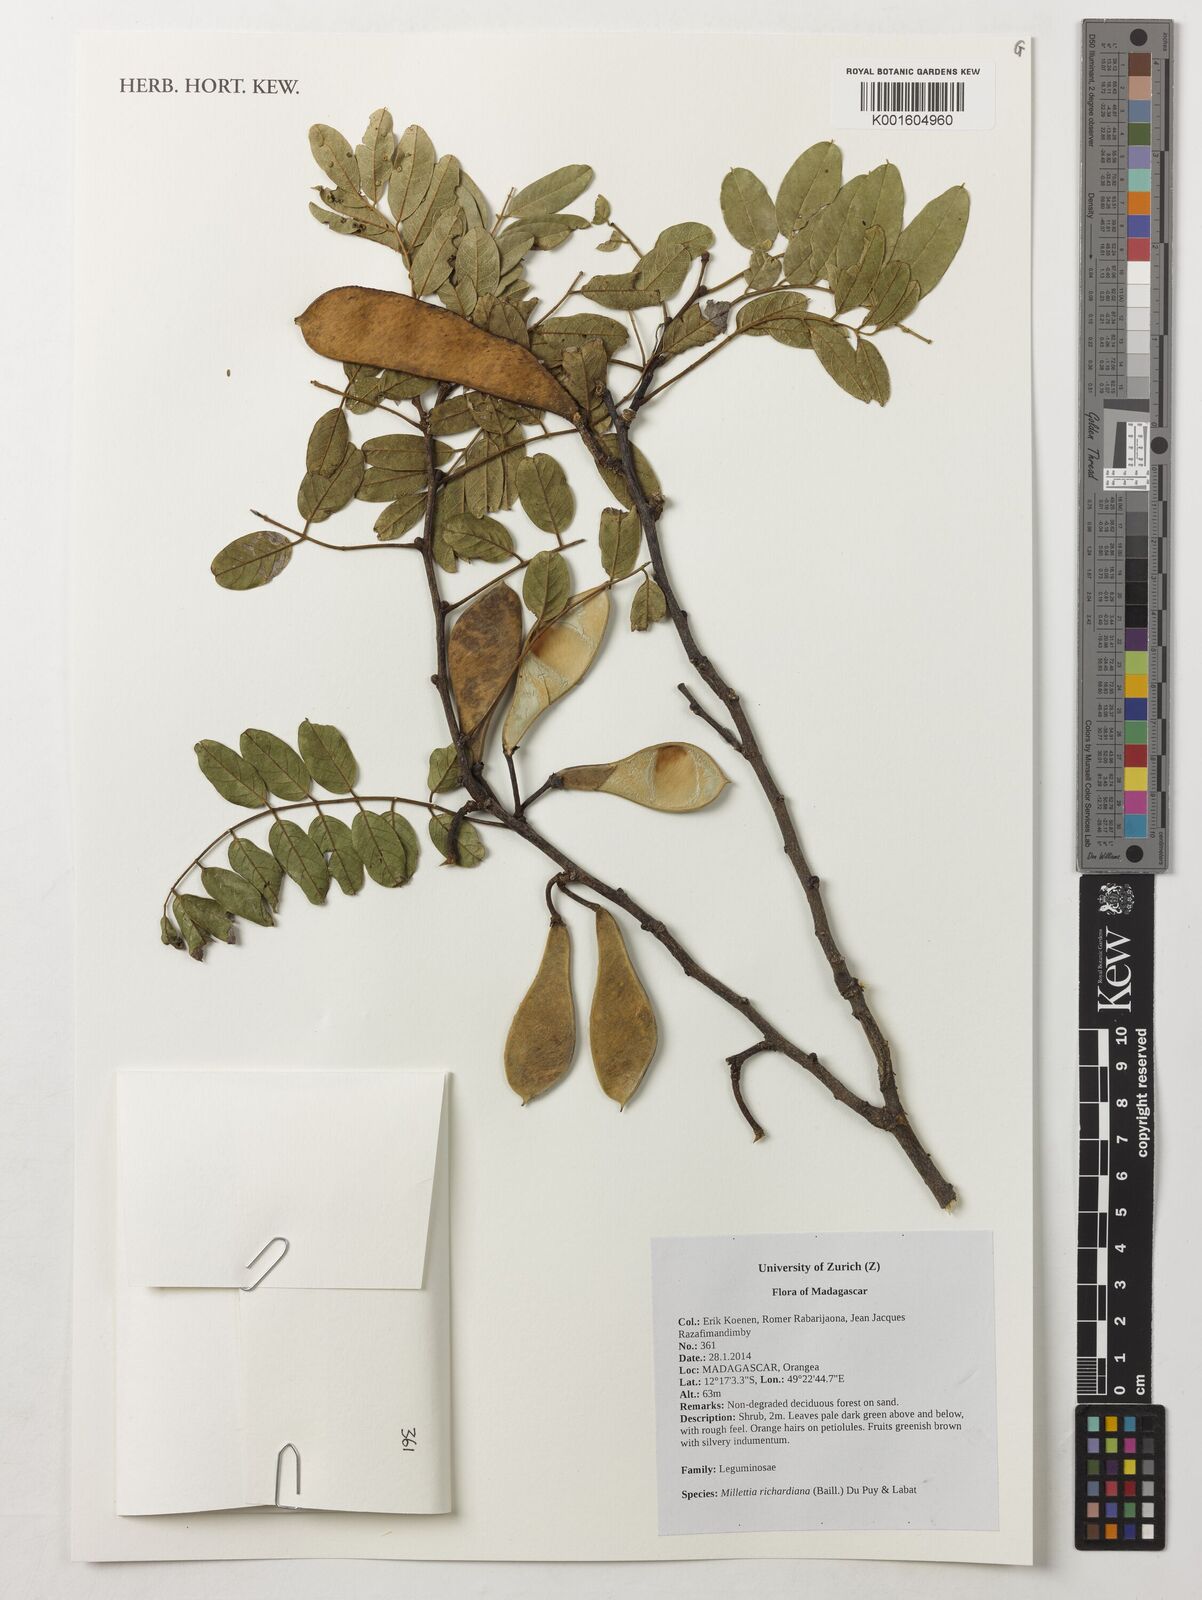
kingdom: Plantae
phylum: Tracheophyta
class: Magnoliopsida
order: Fabales
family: Fabaceae
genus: Millettia
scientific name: Millettia richardiana
